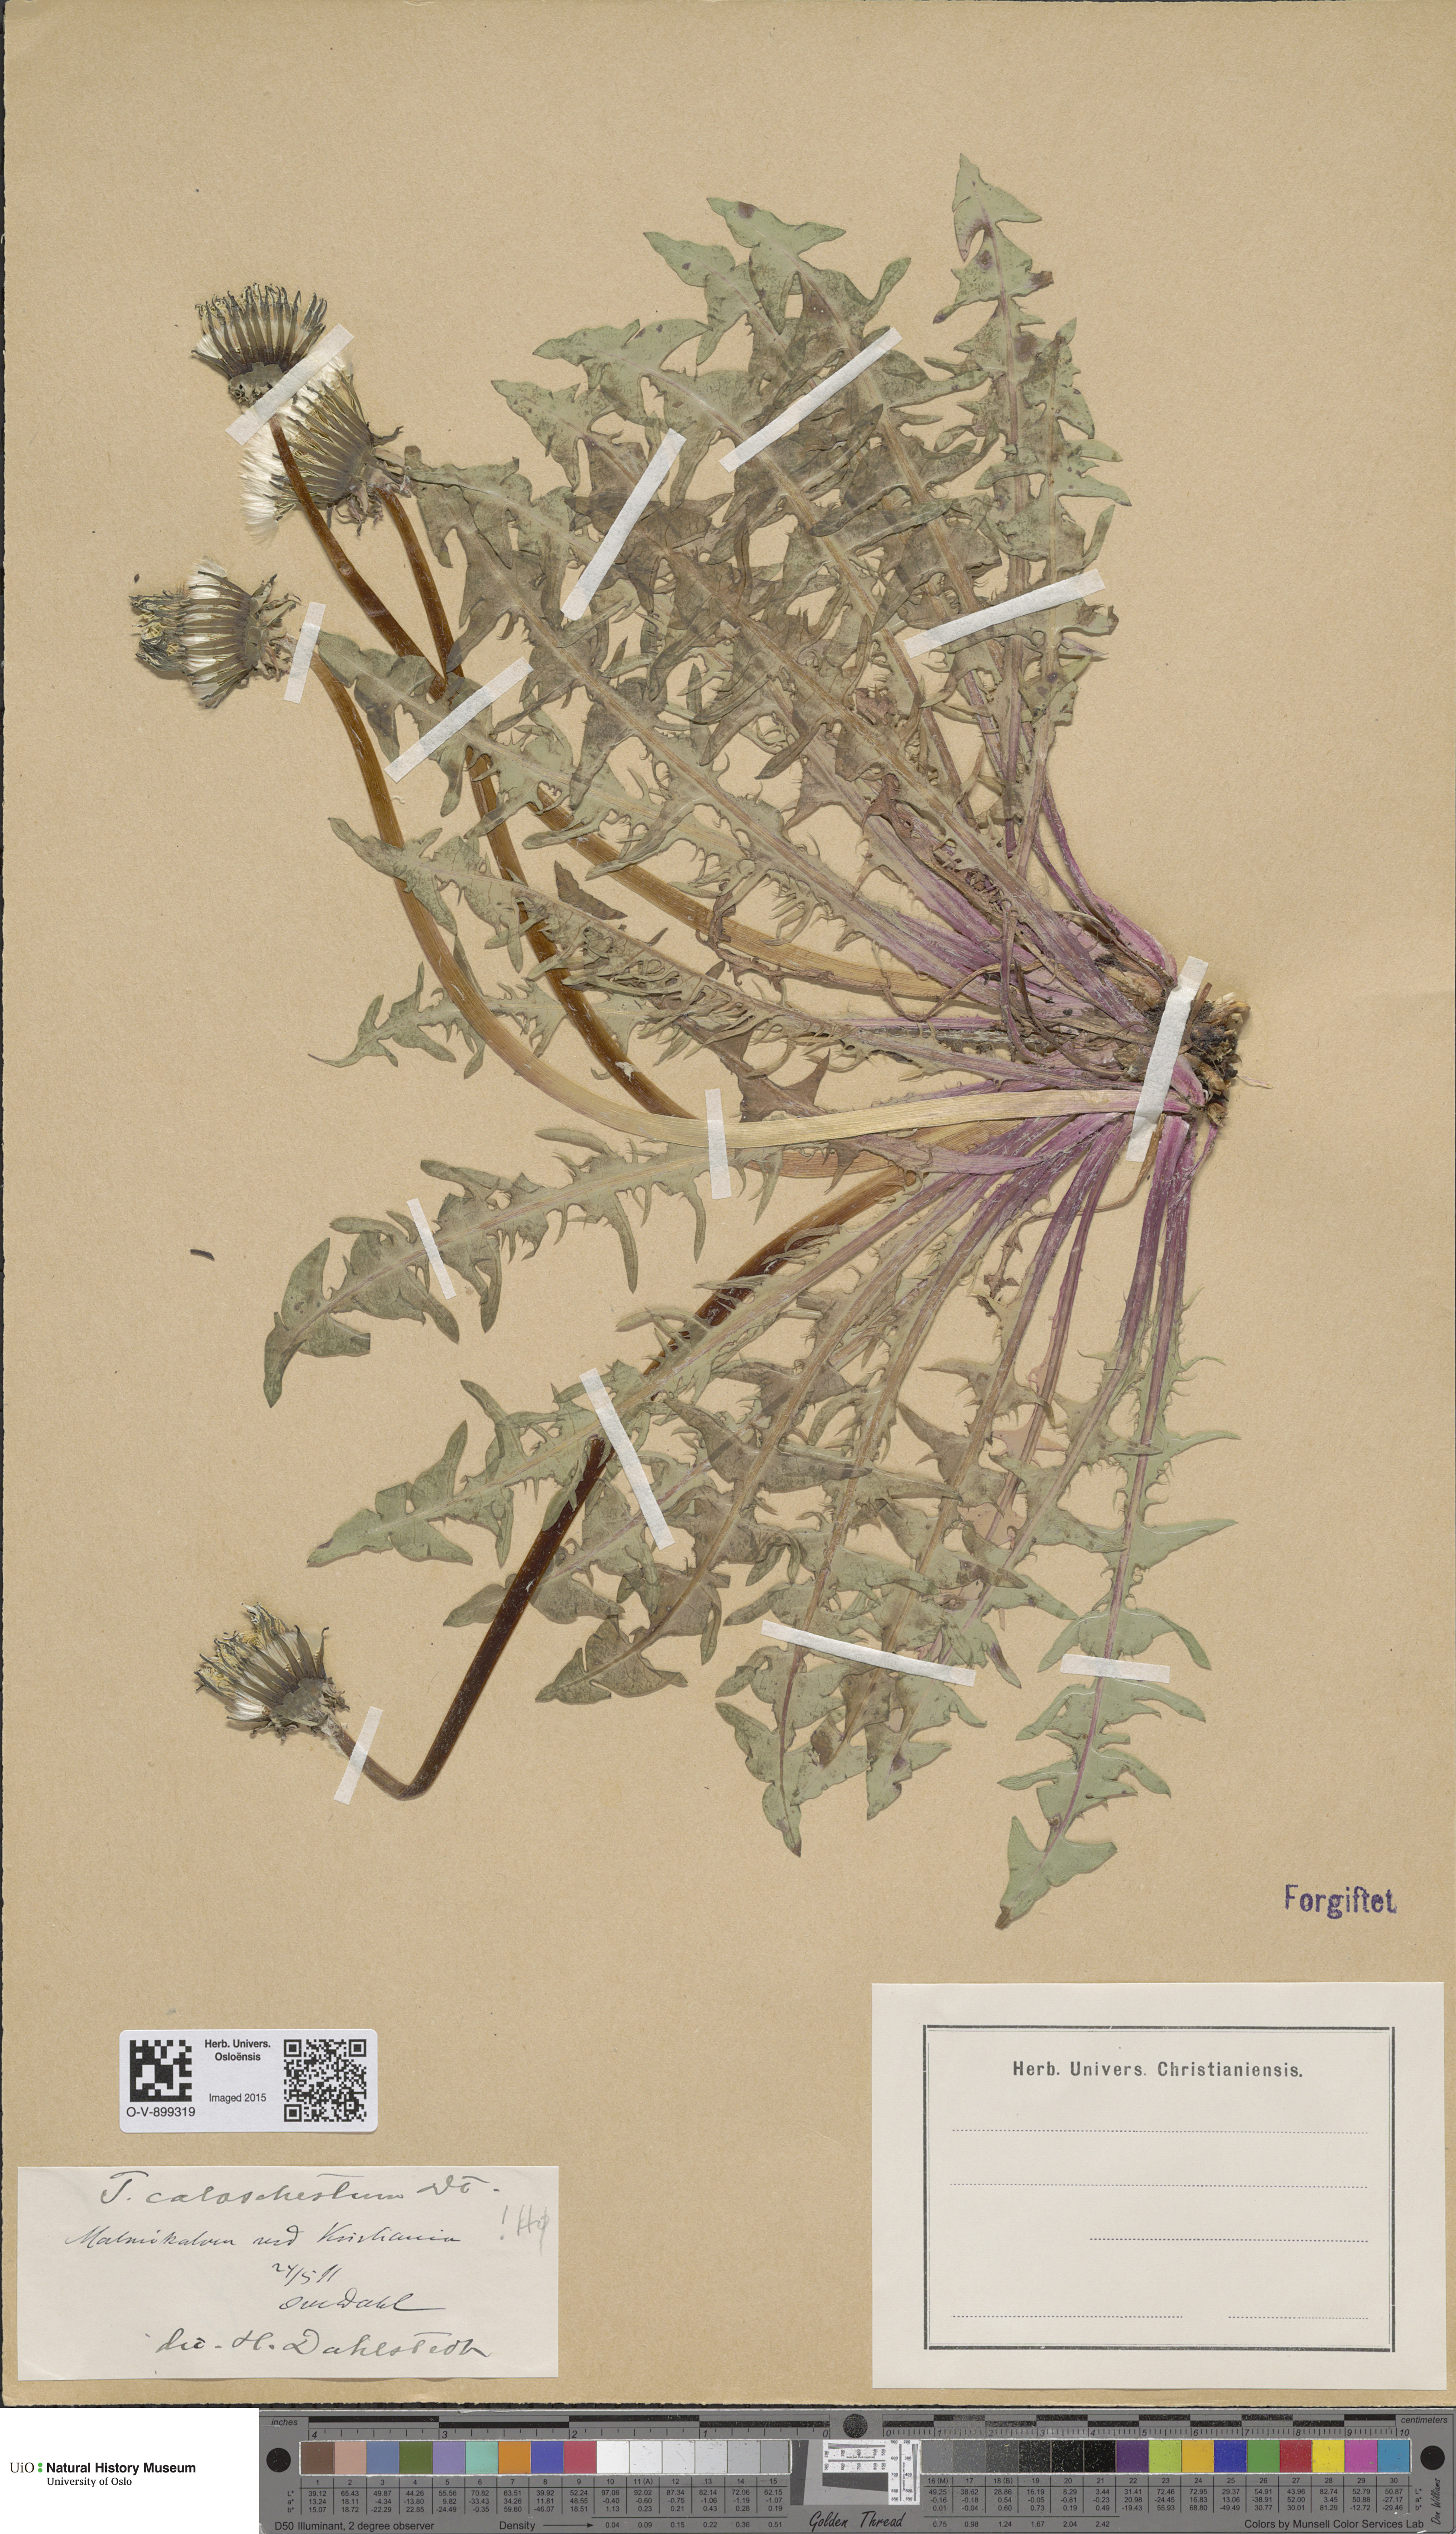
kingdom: Plantae
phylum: Tracheophyta
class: Magnoliopsida
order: Asterales
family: Asteraceae
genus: Taraxacum
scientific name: Taraxacum caloschistum
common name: Brilliant-stalked dandelion
